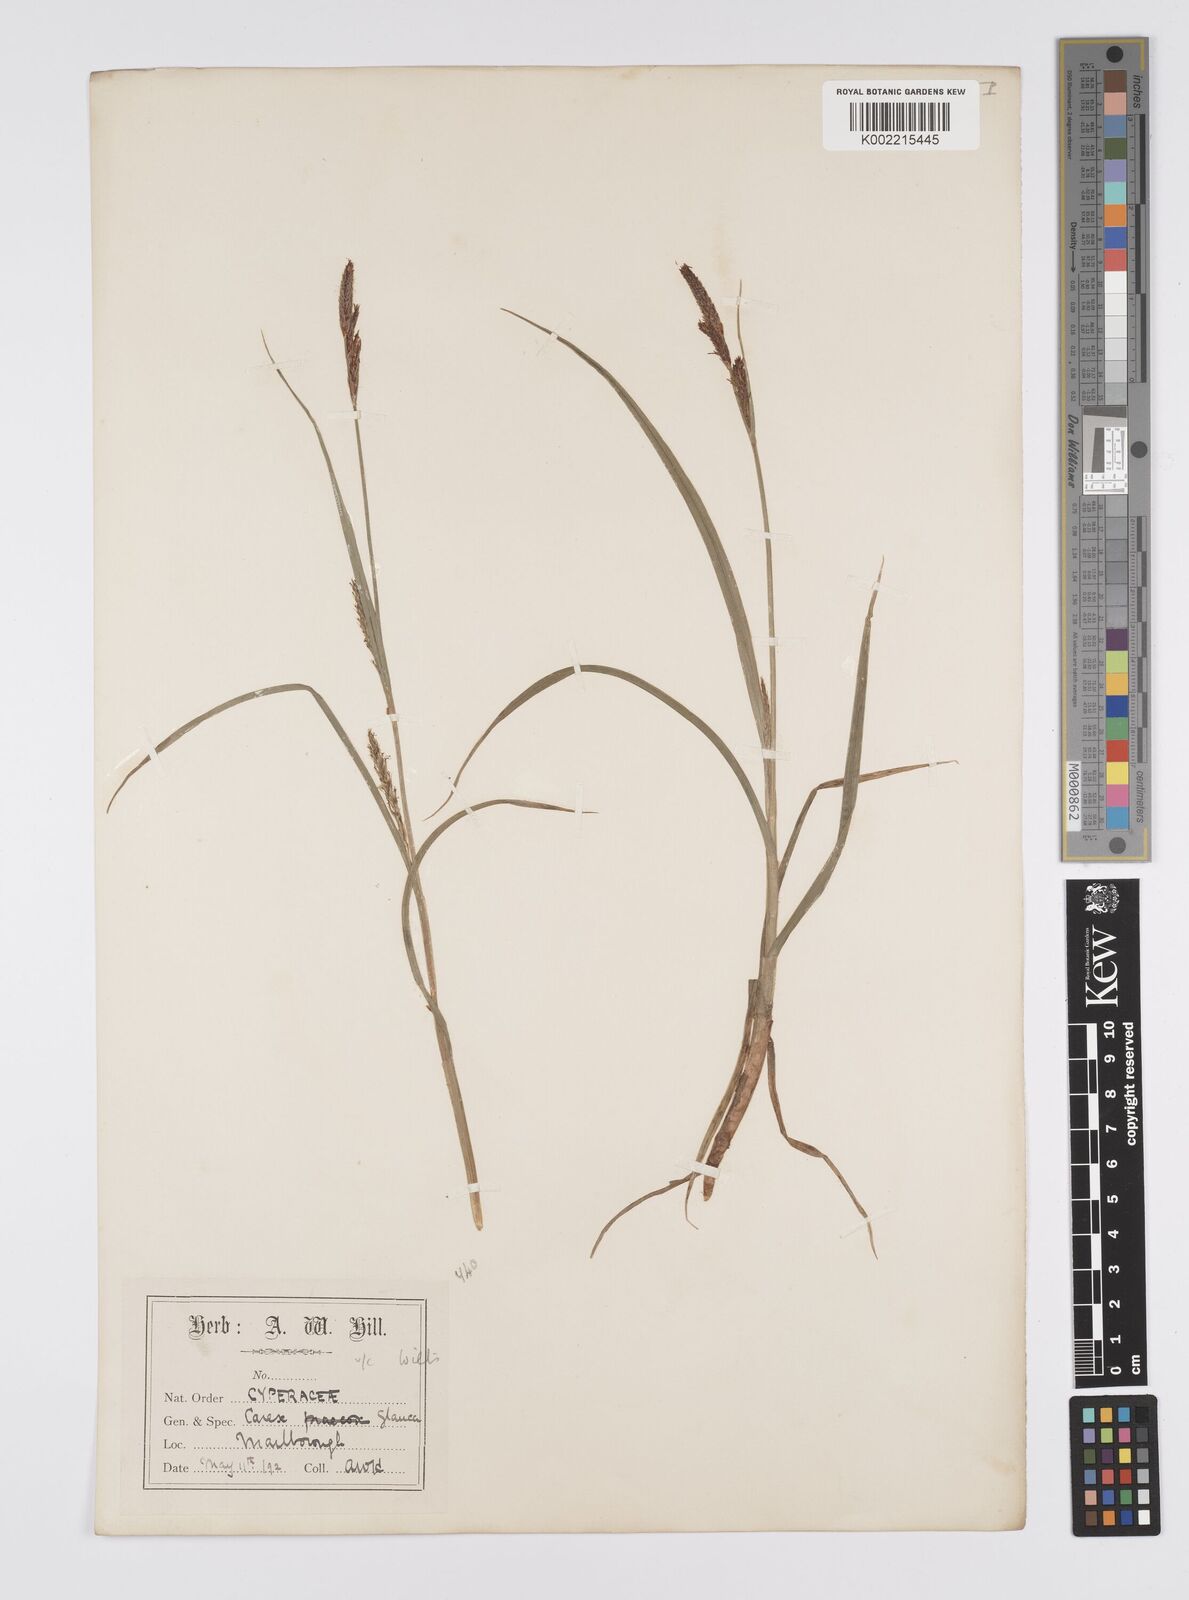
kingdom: Plantae
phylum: Tracheophyta
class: Liliopsida
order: Poales
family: Cyperaceae
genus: Carex
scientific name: Carex hirta
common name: Hairy sedge
